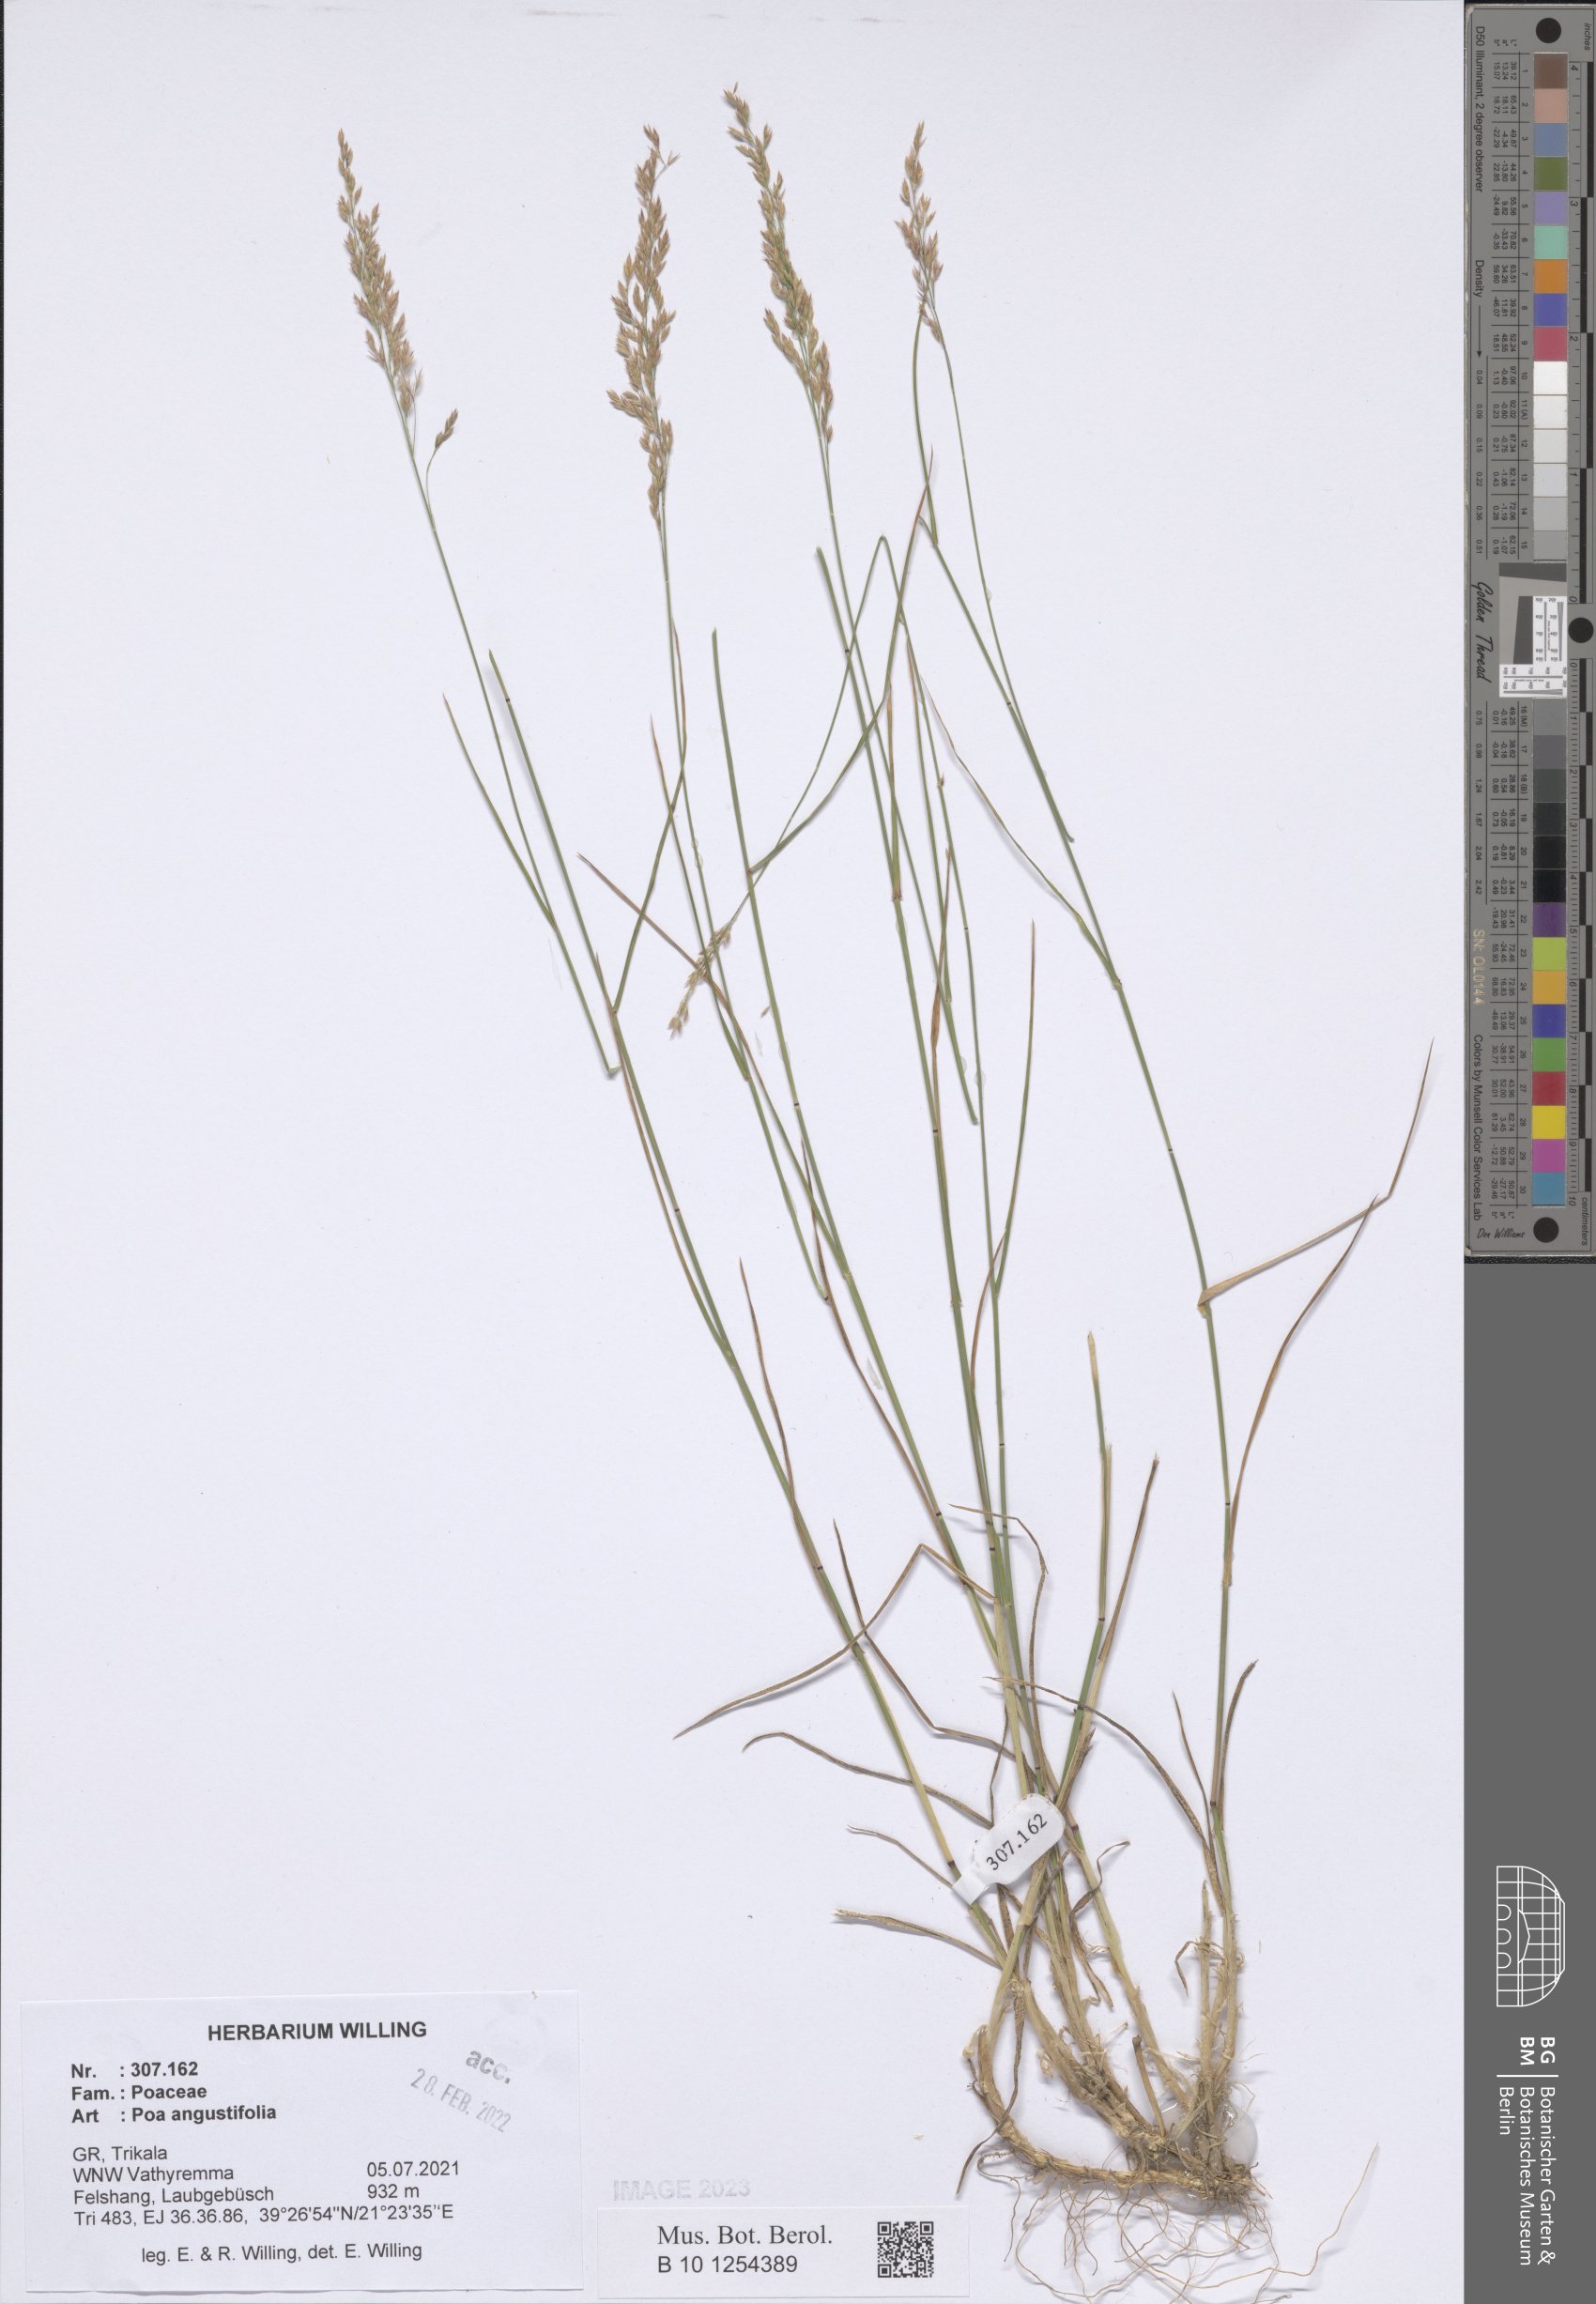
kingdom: Plantae
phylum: Tracheophyta
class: Liliopsida
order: Poales
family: Poaceae
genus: Poa
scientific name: Poa angustifolia
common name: Narrow-leaved meadow-grass
